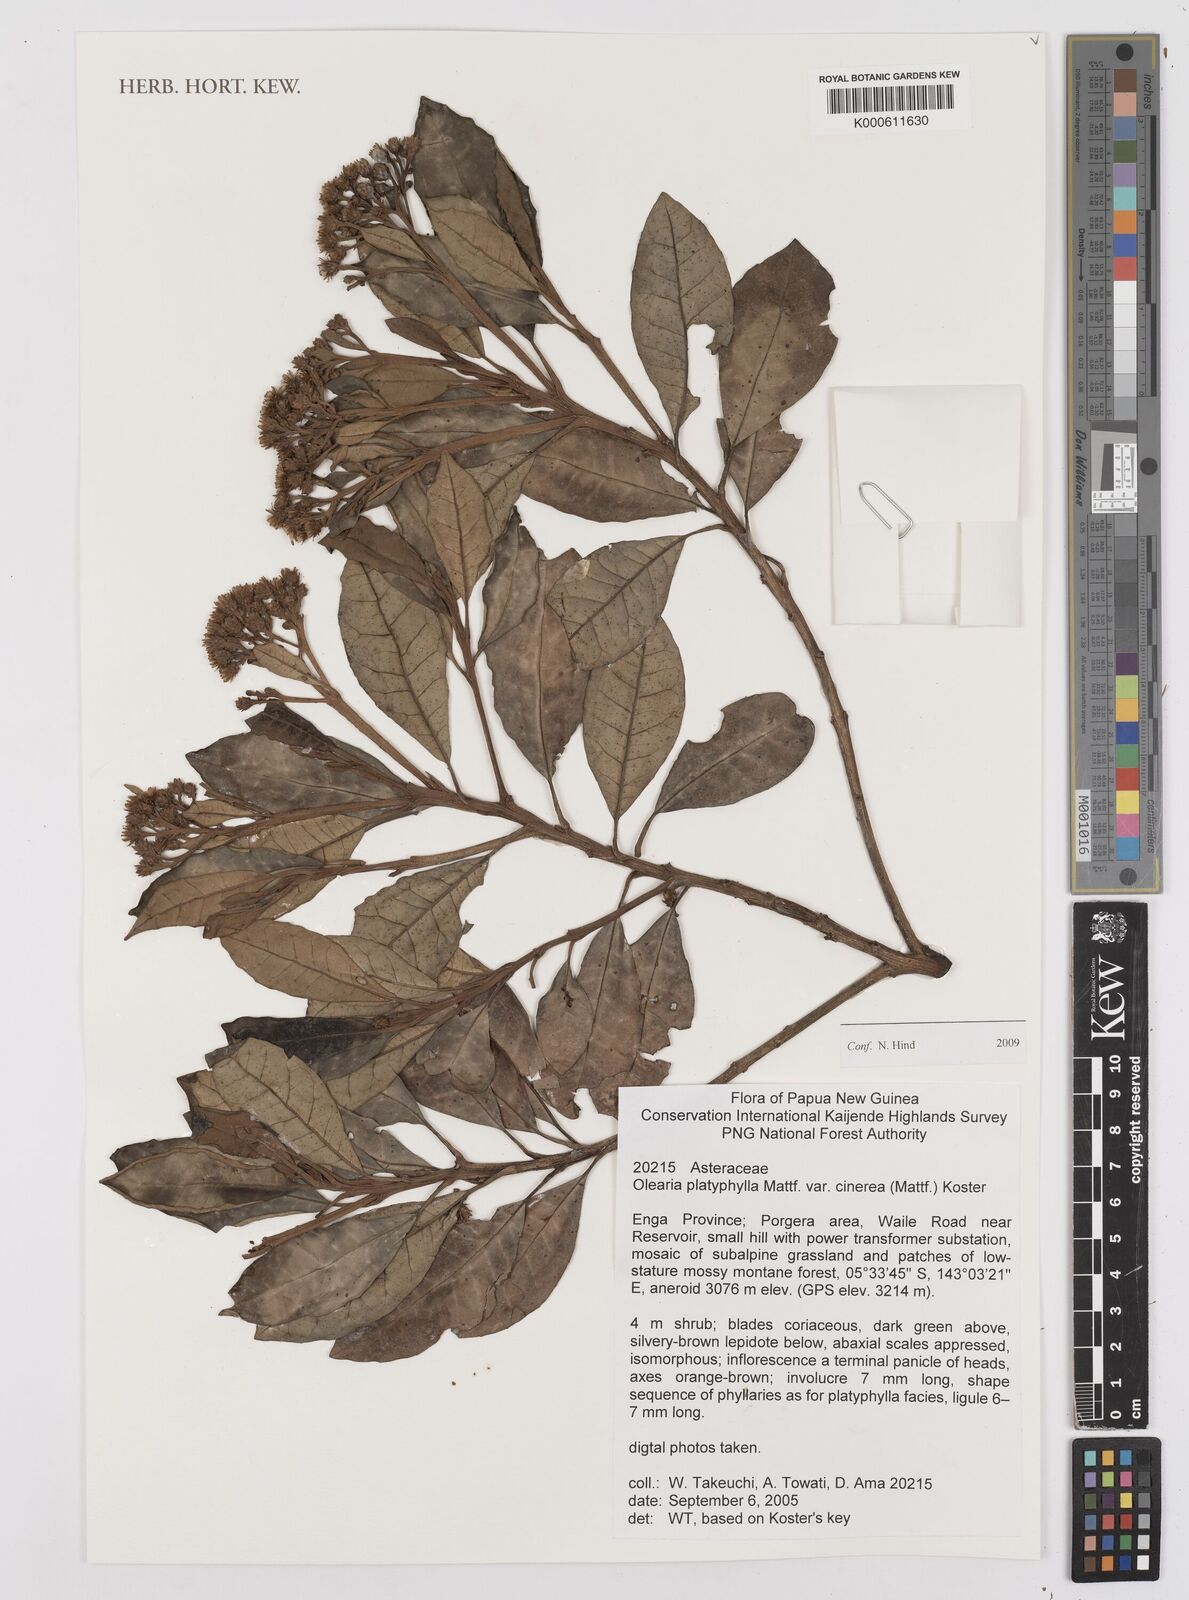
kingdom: Plantae
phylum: Tracheophyta
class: Magnoliopsida
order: Asterales
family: Asteraceae
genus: Olearia
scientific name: Olearia platyphylla
